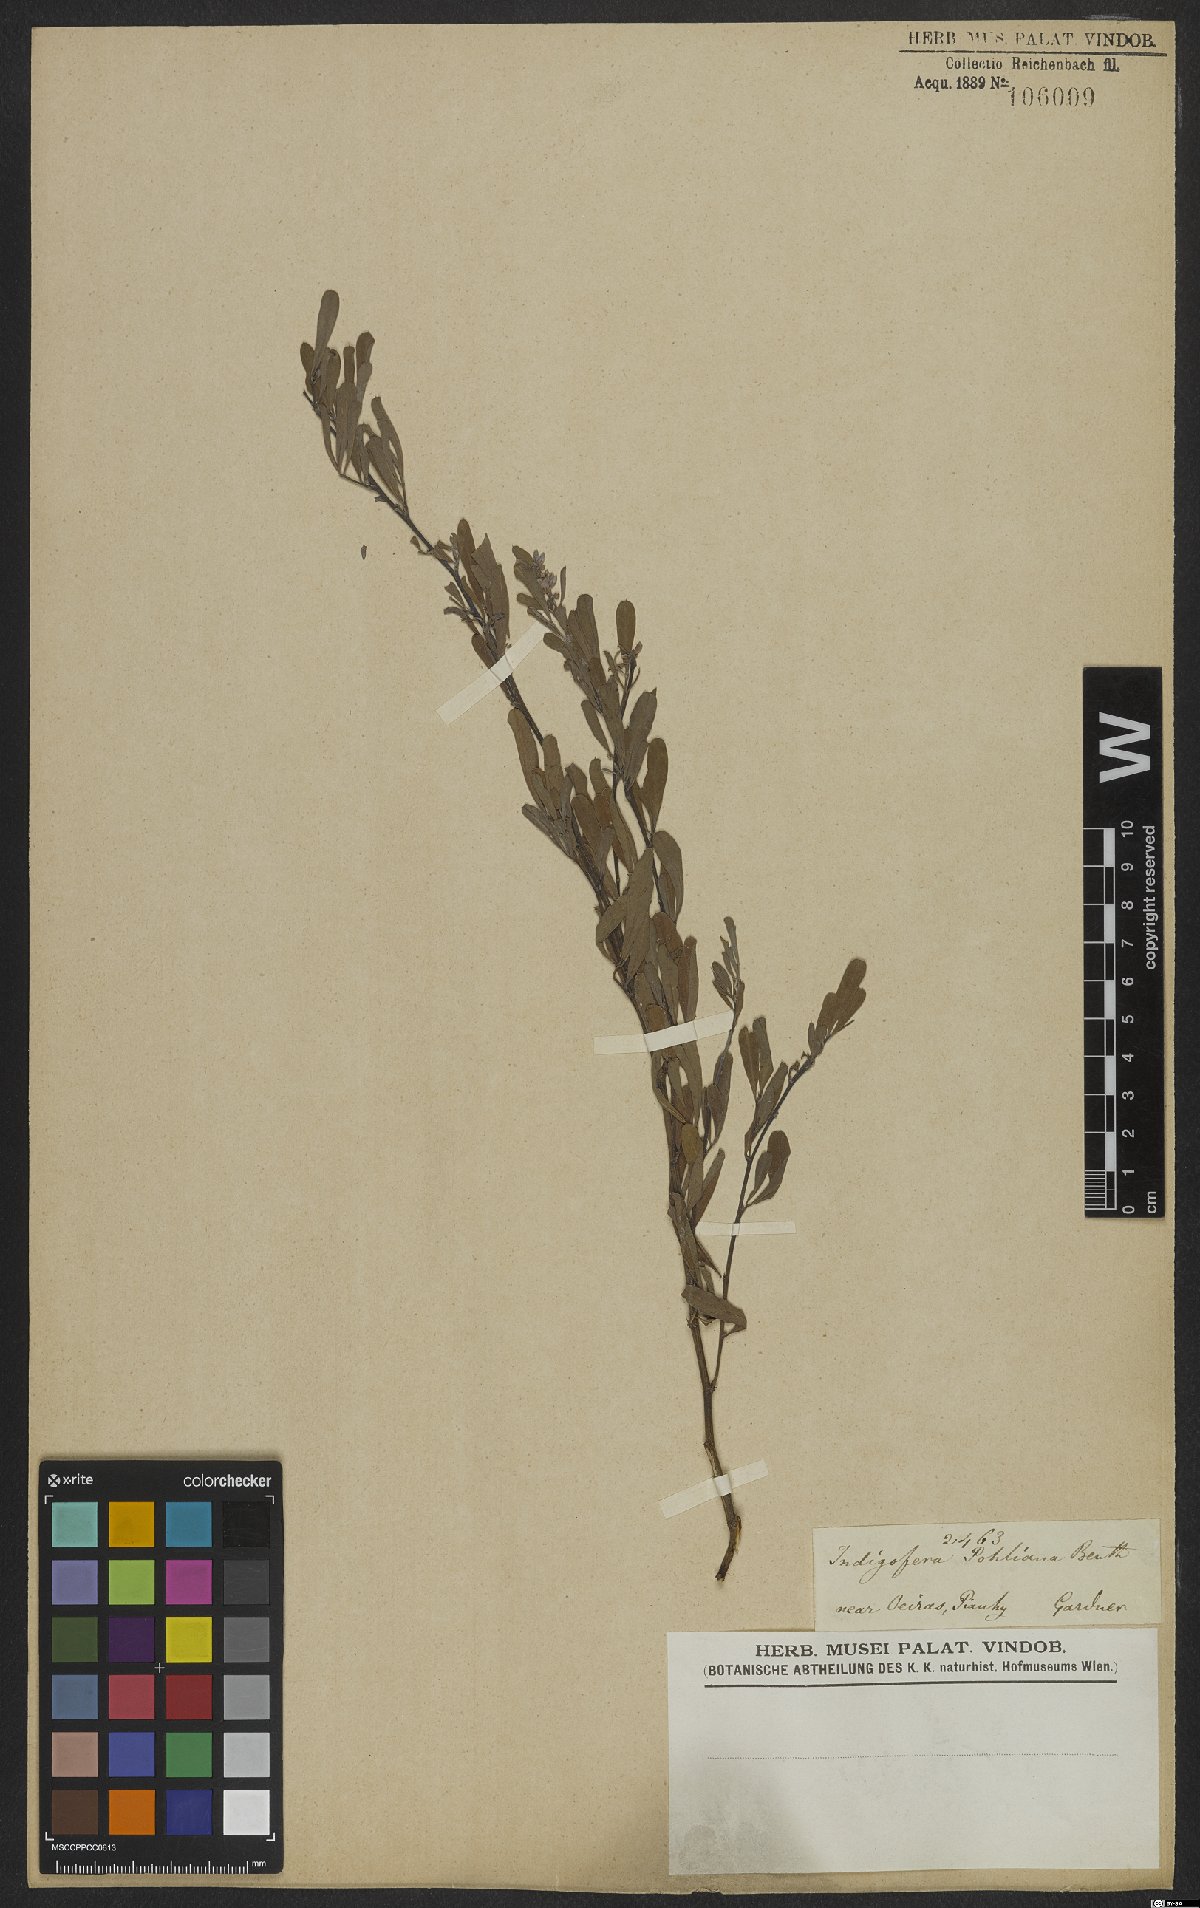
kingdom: Plantae
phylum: Tracheophyta
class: Magnoliopsida
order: Fabales
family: Fabaceae
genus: Indigofera
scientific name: Indigofera lespedezioides
